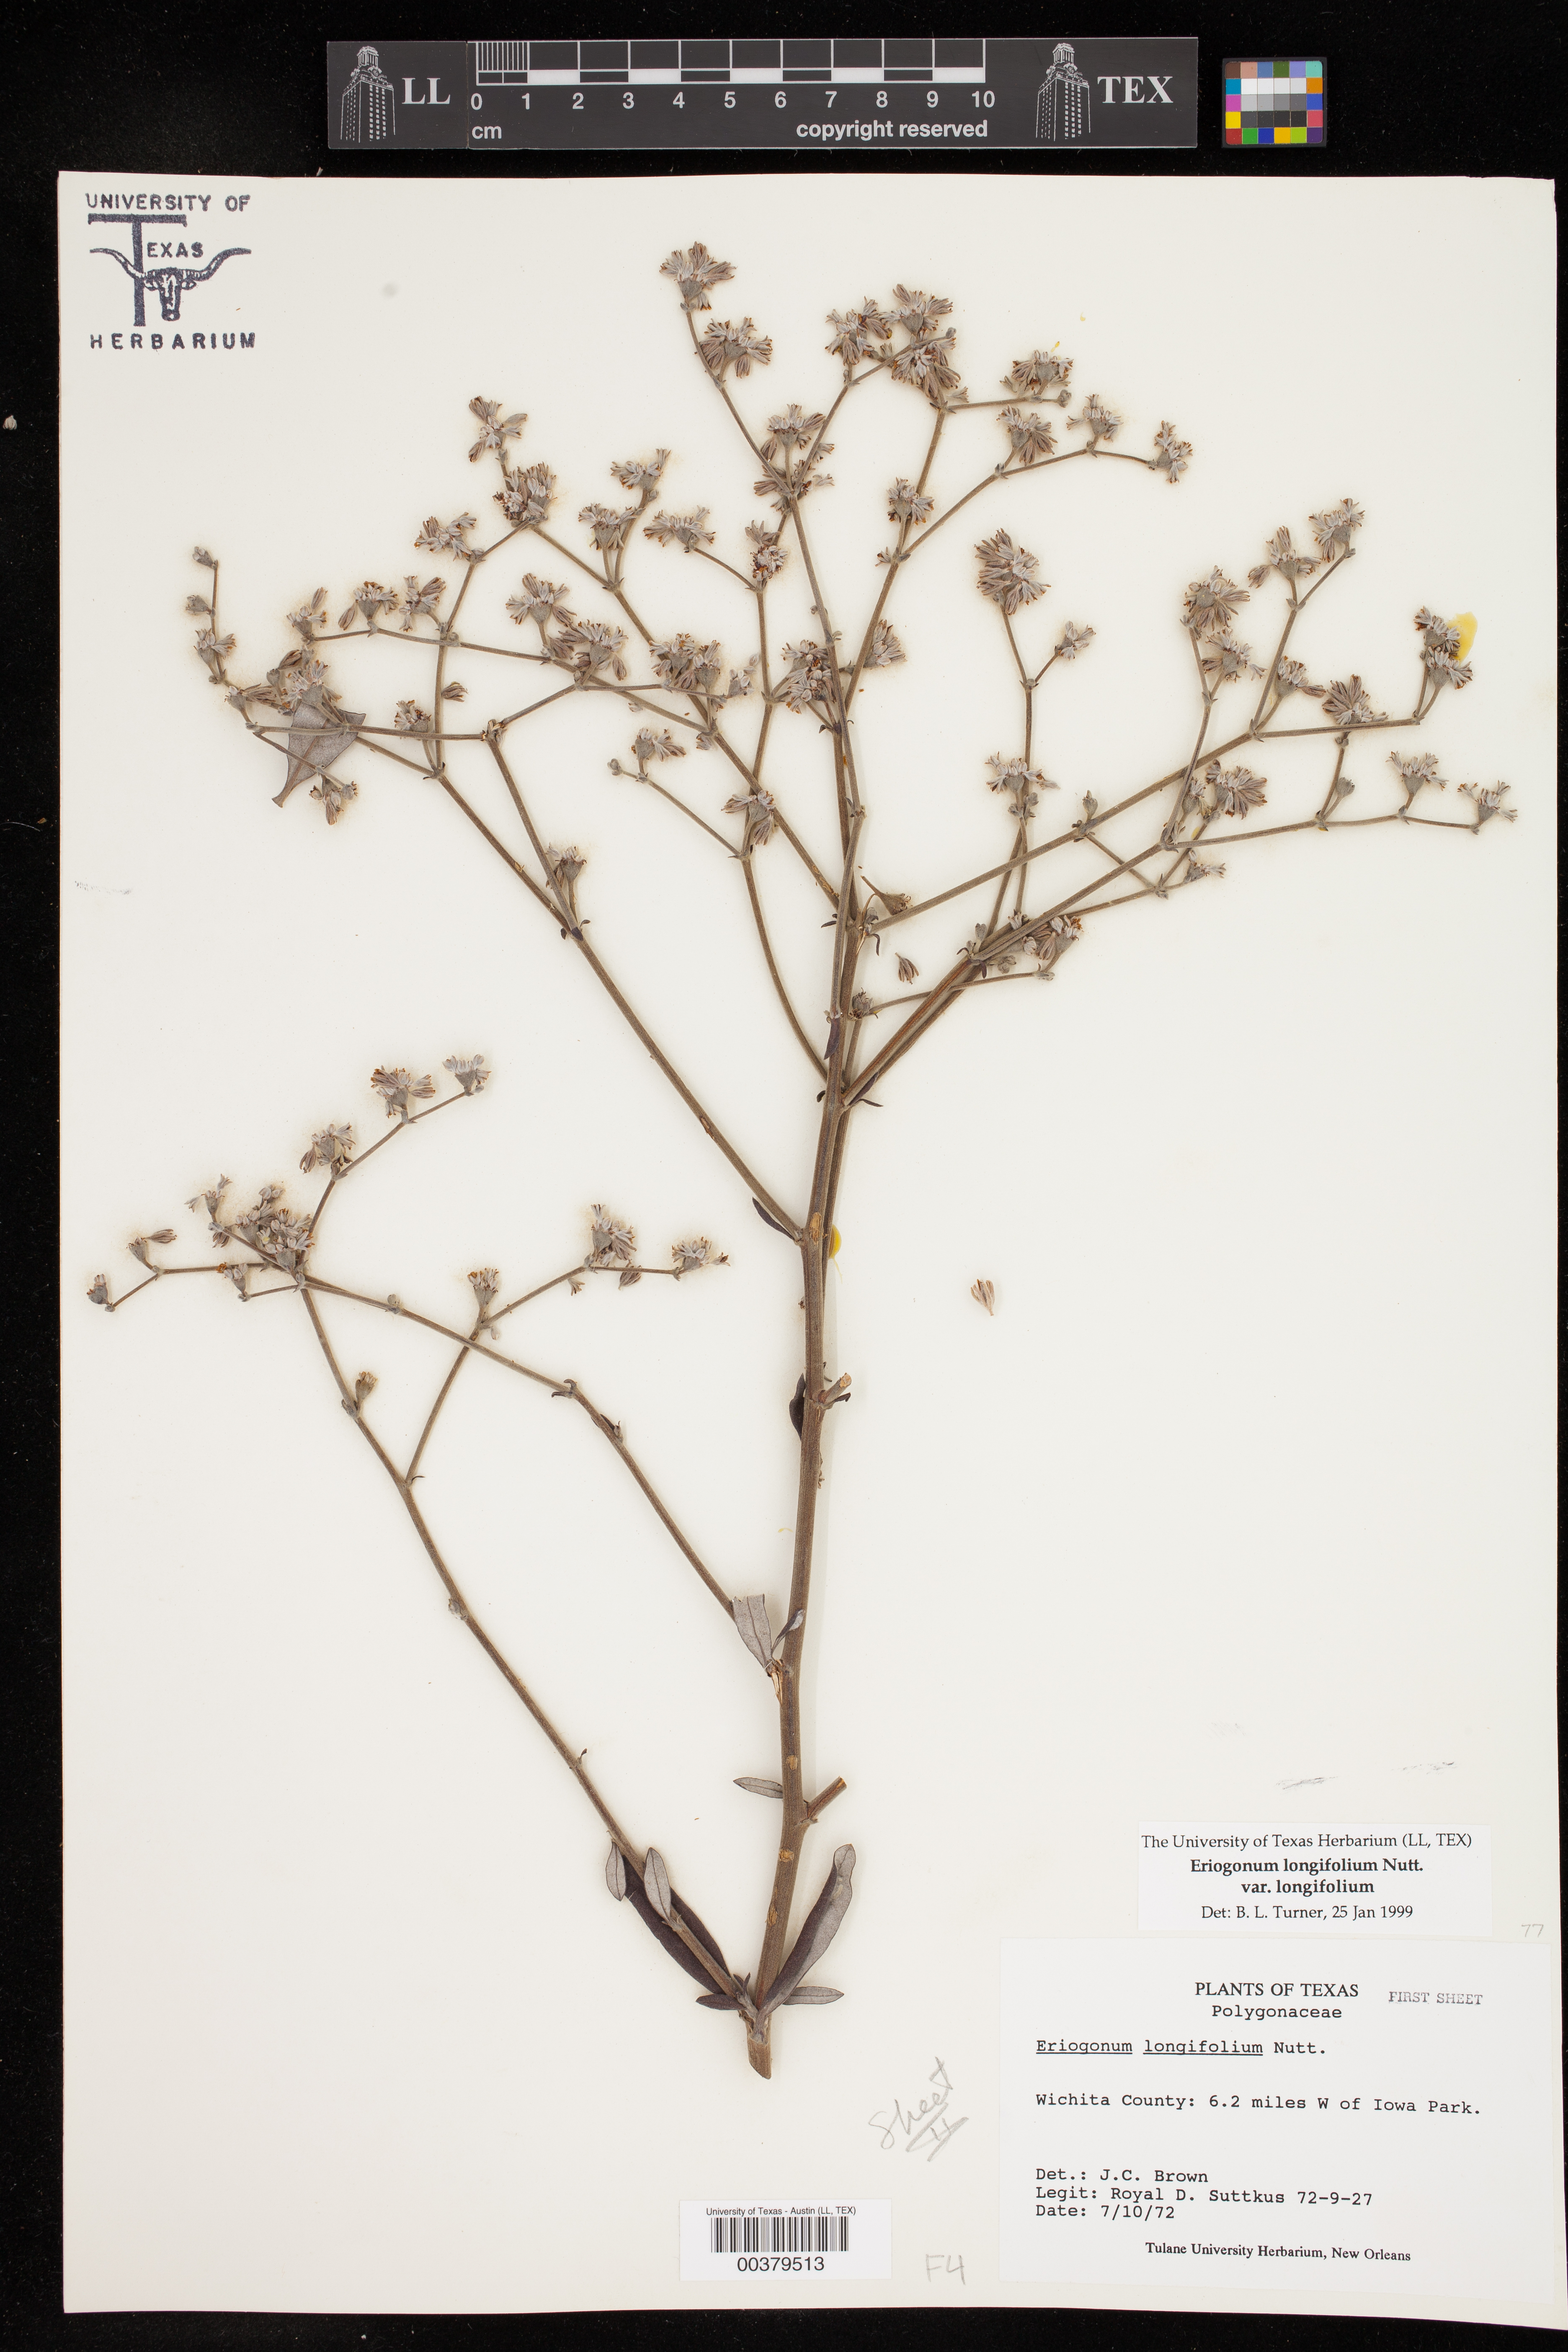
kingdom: Plantae
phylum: Tracheophyta
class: Magnoliopsida
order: Caryophyllales
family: Polygonaceae
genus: Eriogonum
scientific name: Eriogonum longifolium
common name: Longleaf wild buckwheat
